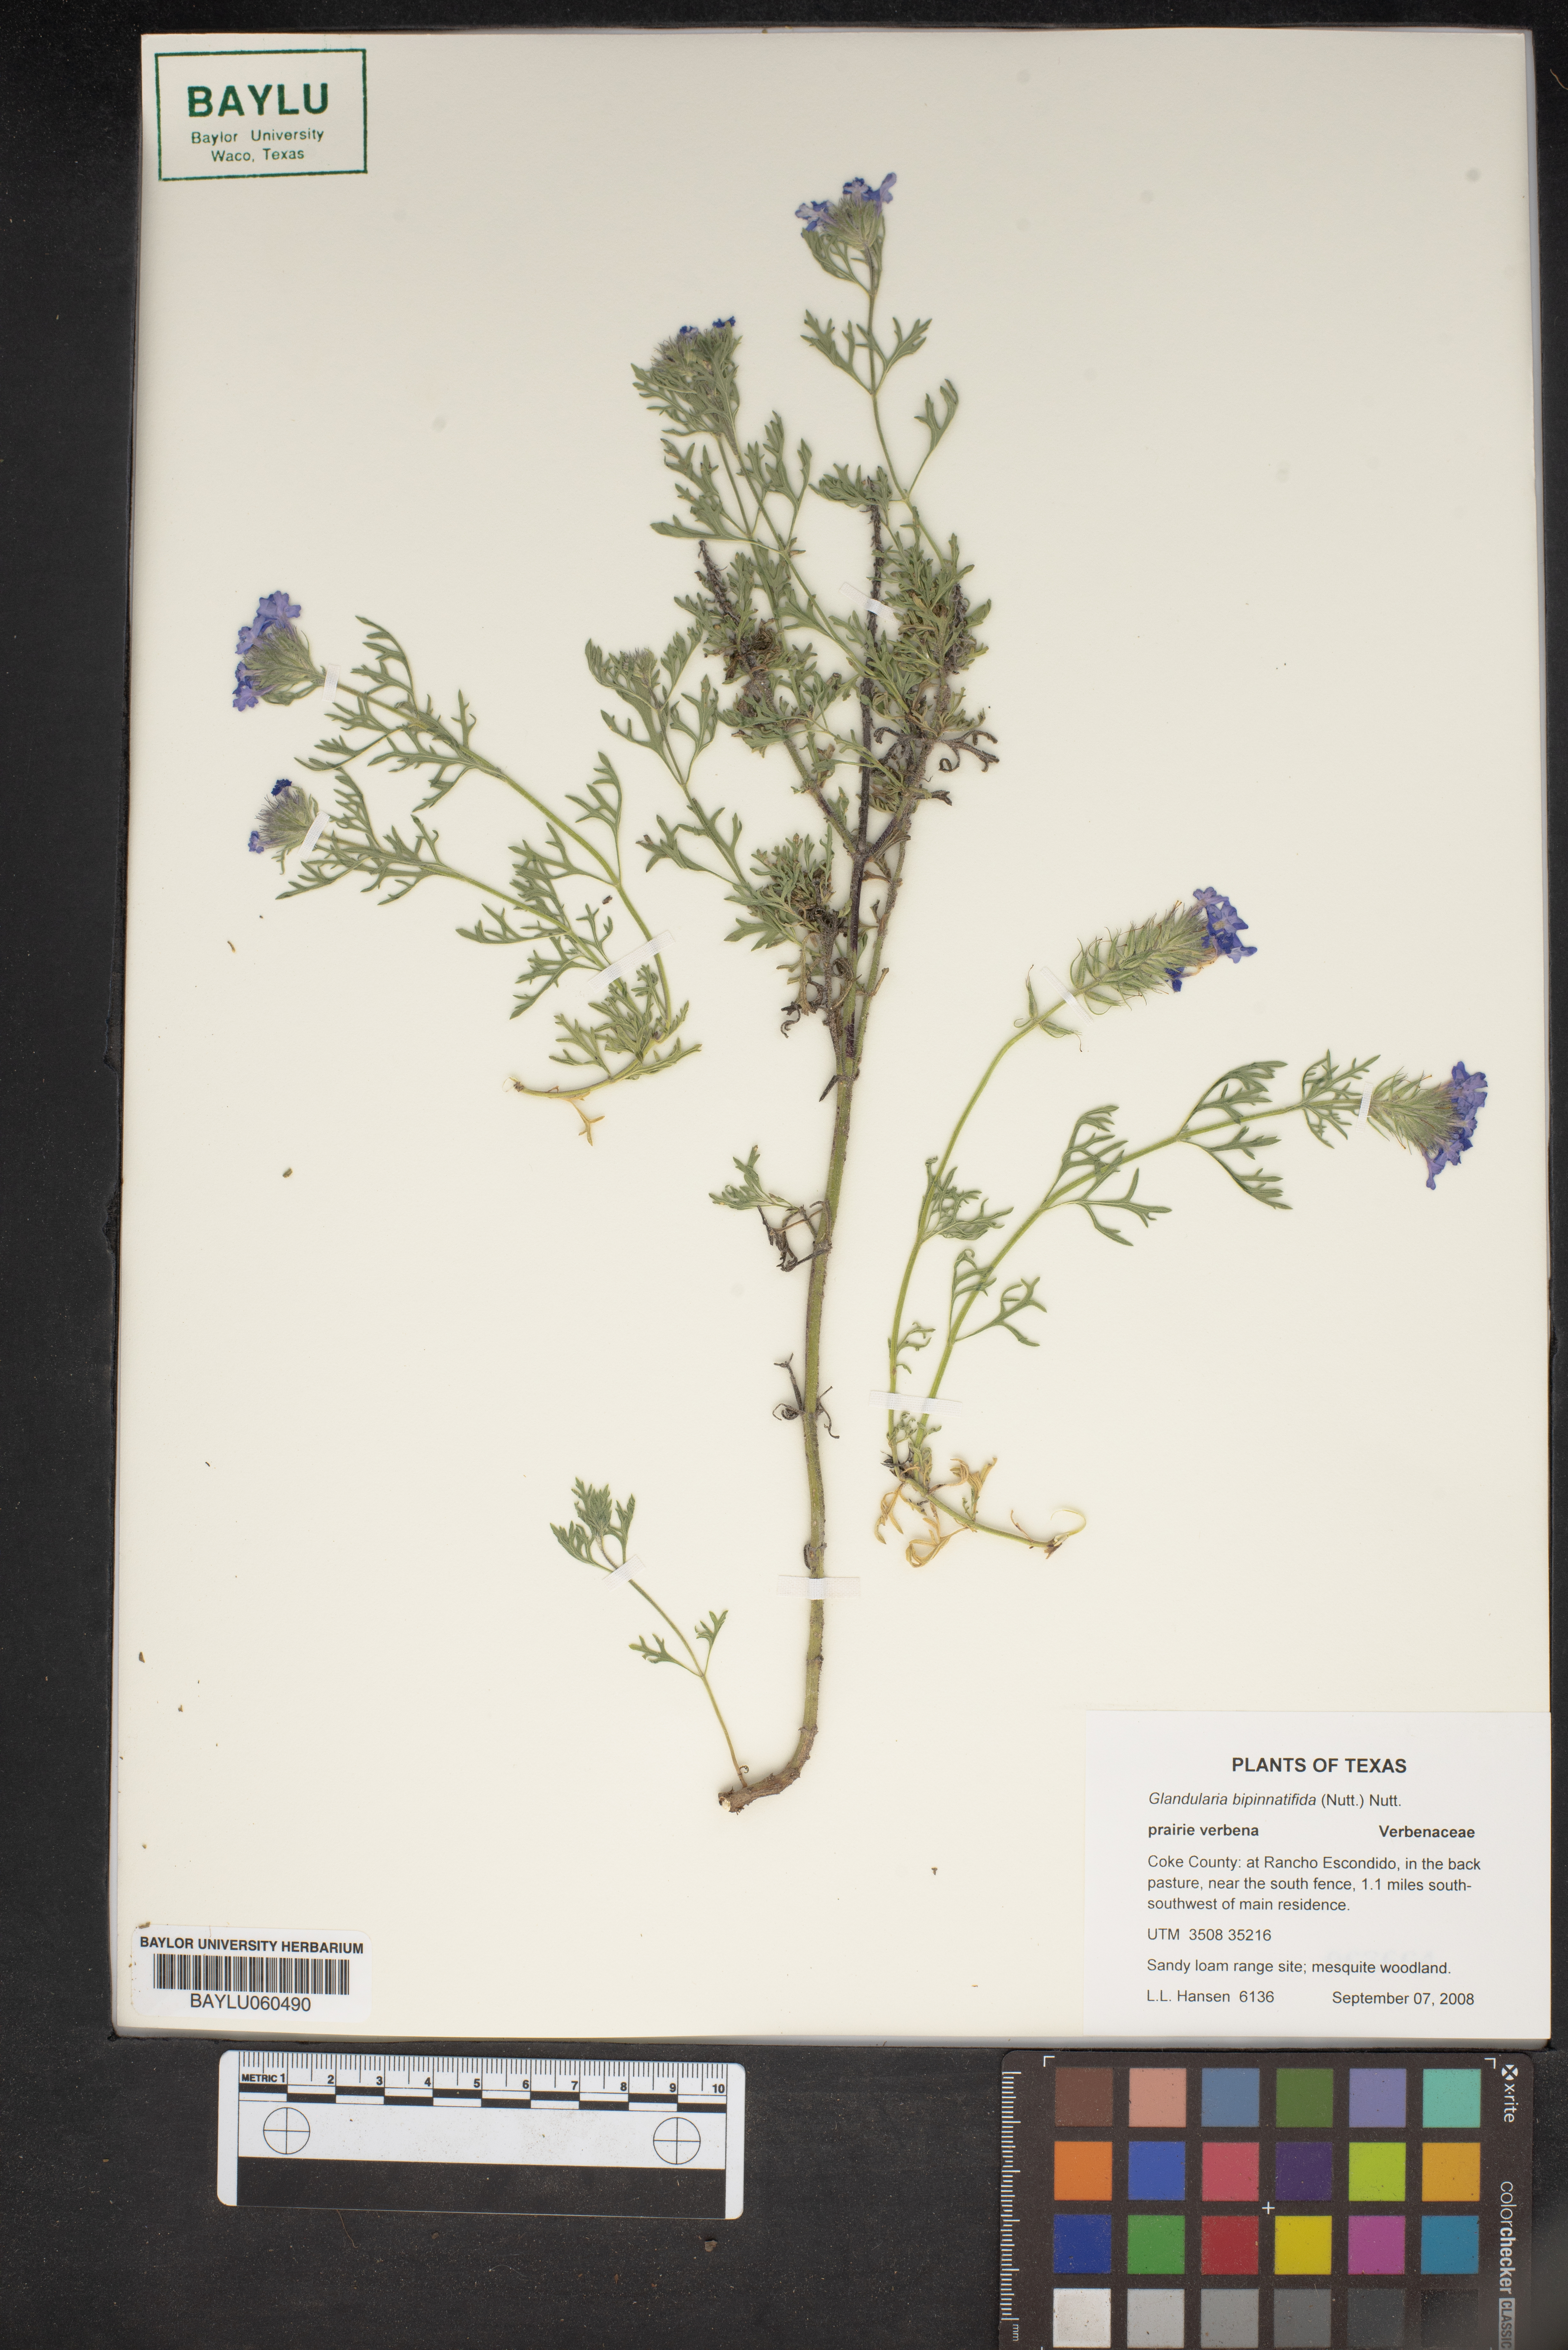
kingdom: Plantae
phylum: Tracheophyta
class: Magnoliopsida
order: Lamiales
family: Verbenaceae
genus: Verbena
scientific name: Verbena bipinnatifida
